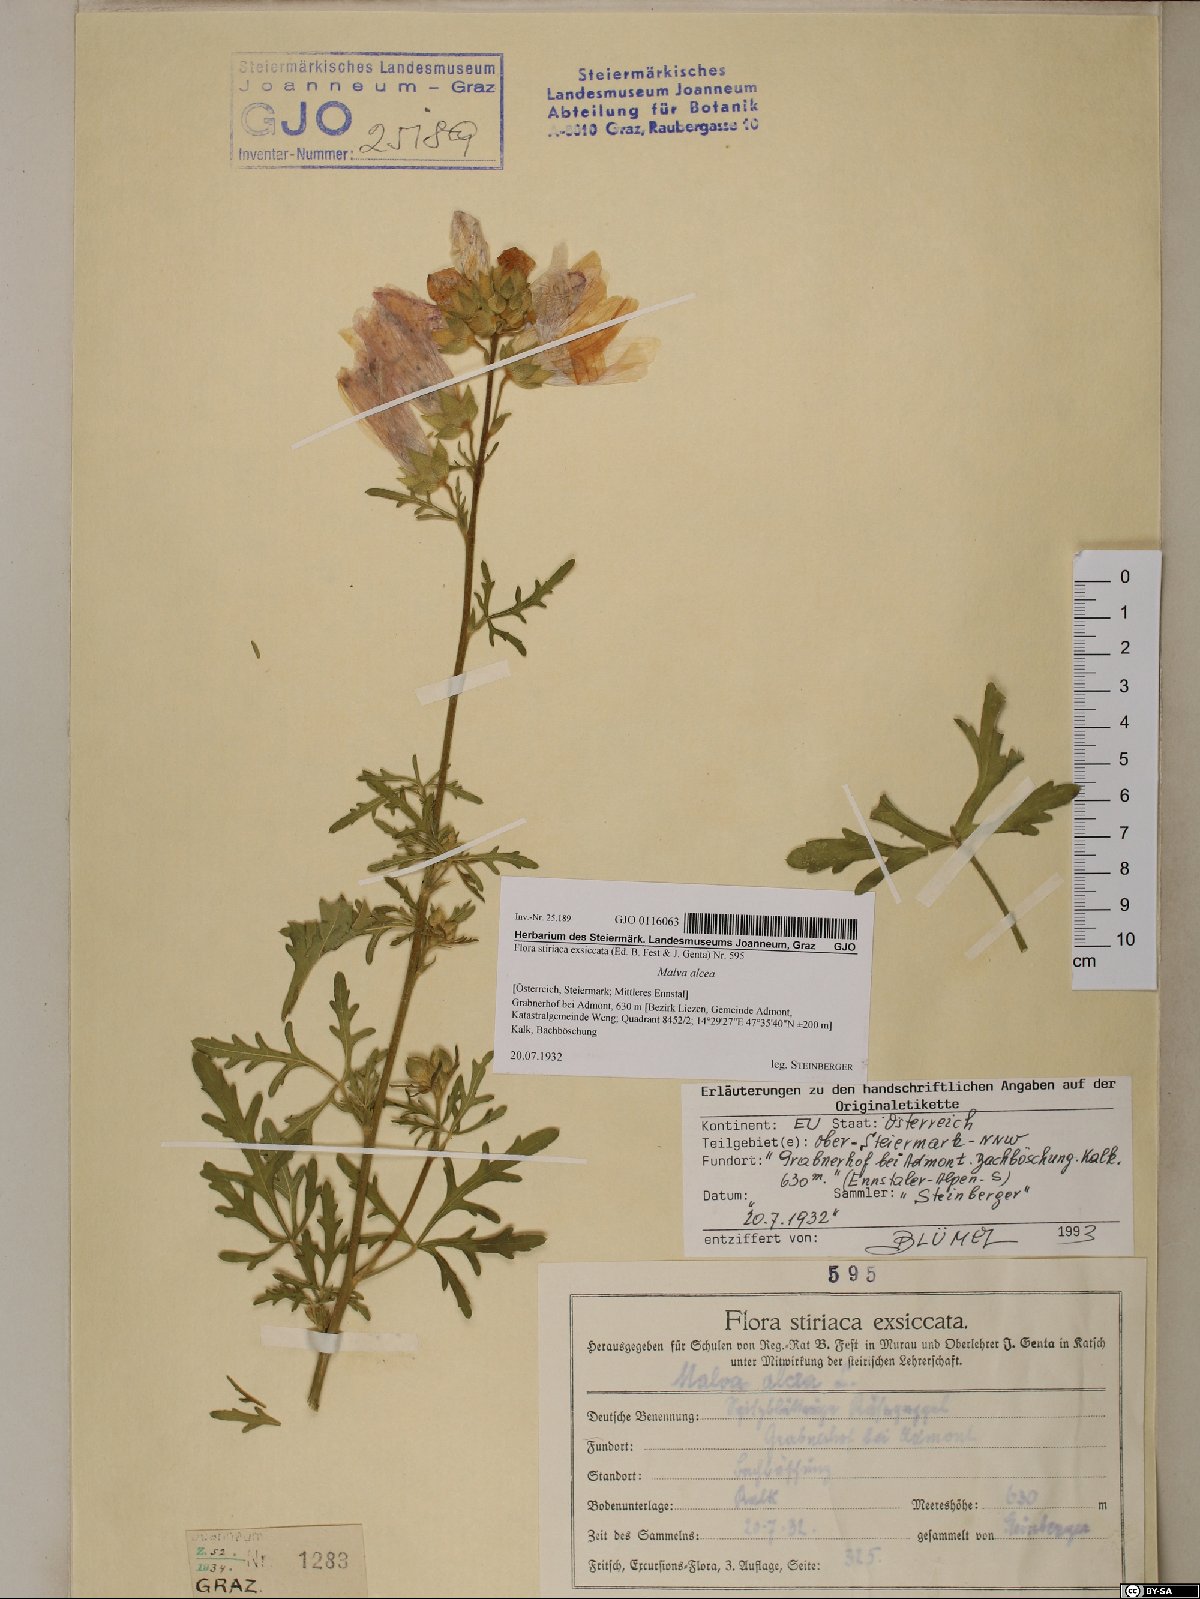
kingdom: Plantae
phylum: Tracheophyta
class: Magnoliopsida
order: Malvales
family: Malvaceae
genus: Malva
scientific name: Malva alcea
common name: Greater musk-mallow
